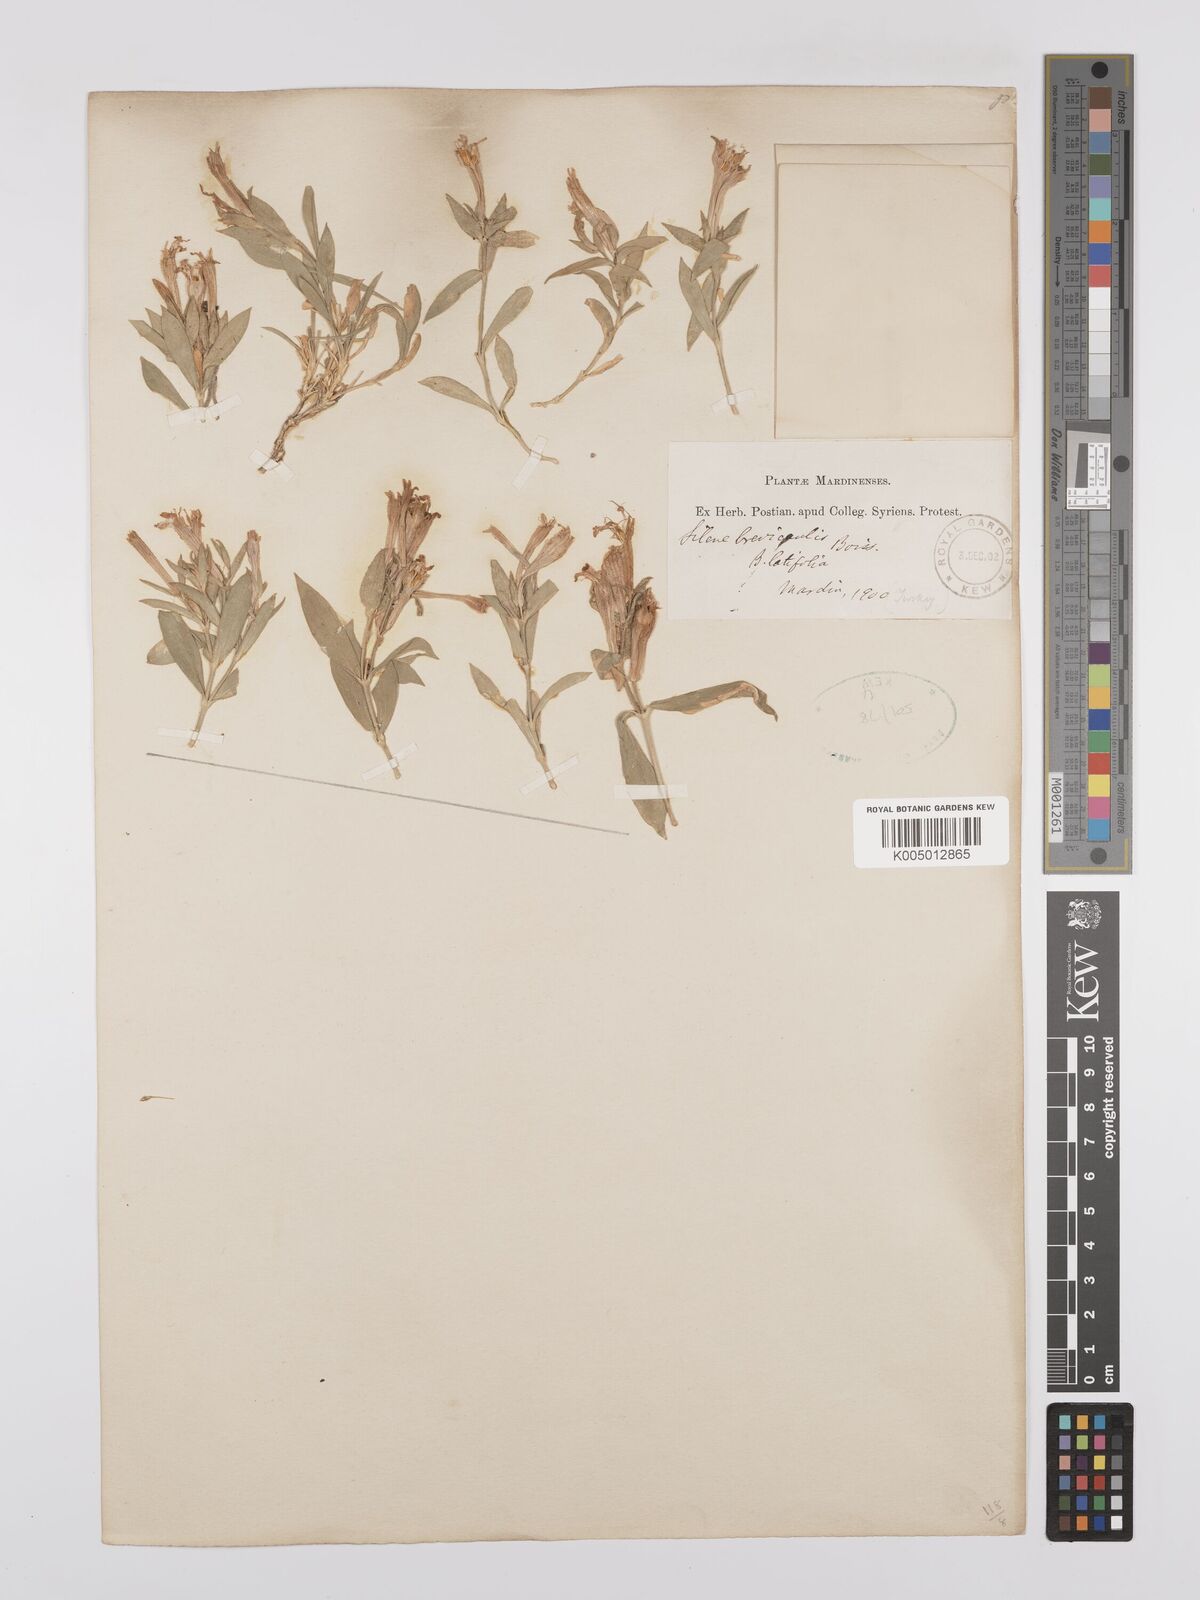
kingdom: Plantae
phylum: Tracheophyta
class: Magnoliopsida
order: Caryophyllales
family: Caryophyllaceae
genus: Silene
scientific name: Silene brevicaulis
